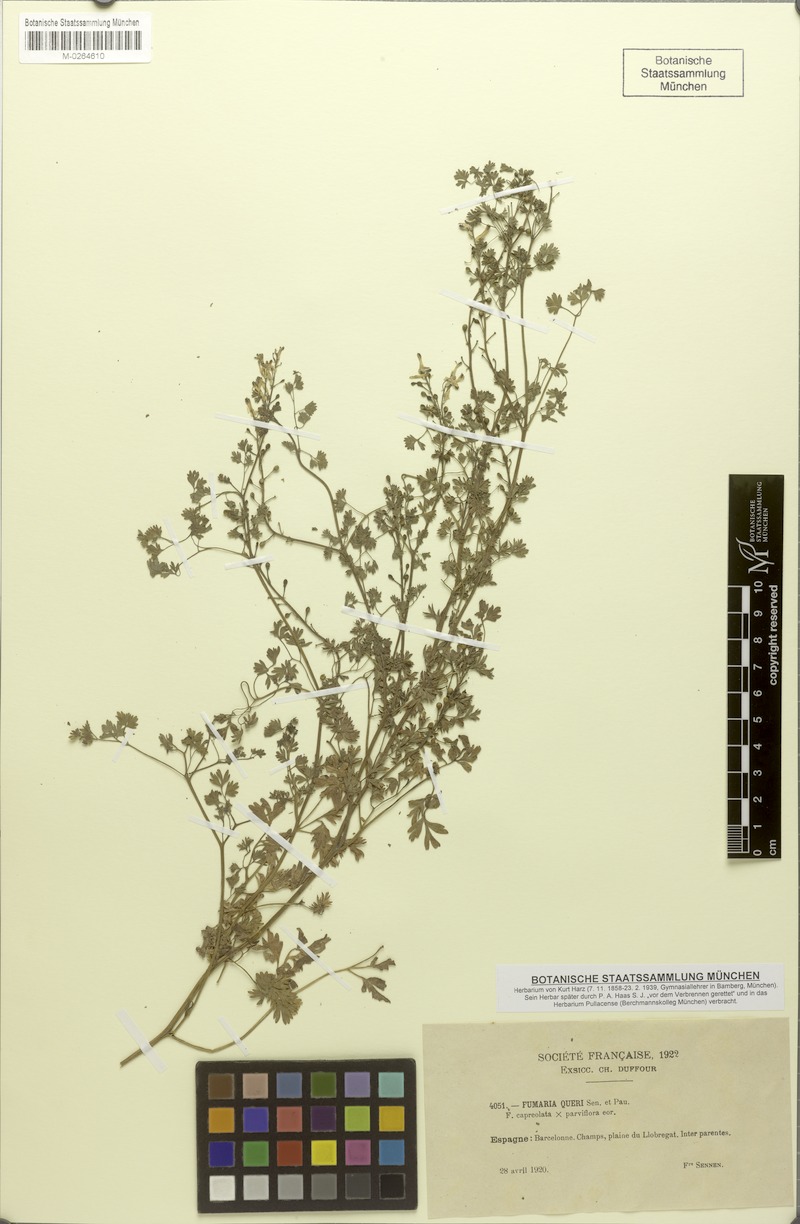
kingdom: Plantae
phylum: Tracheophyta
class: Magnoliopsida
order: Ranunculales
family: Papaveraceae
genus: Fumaria
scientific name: Fumaria capreolata
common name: White ramping-fumitory
